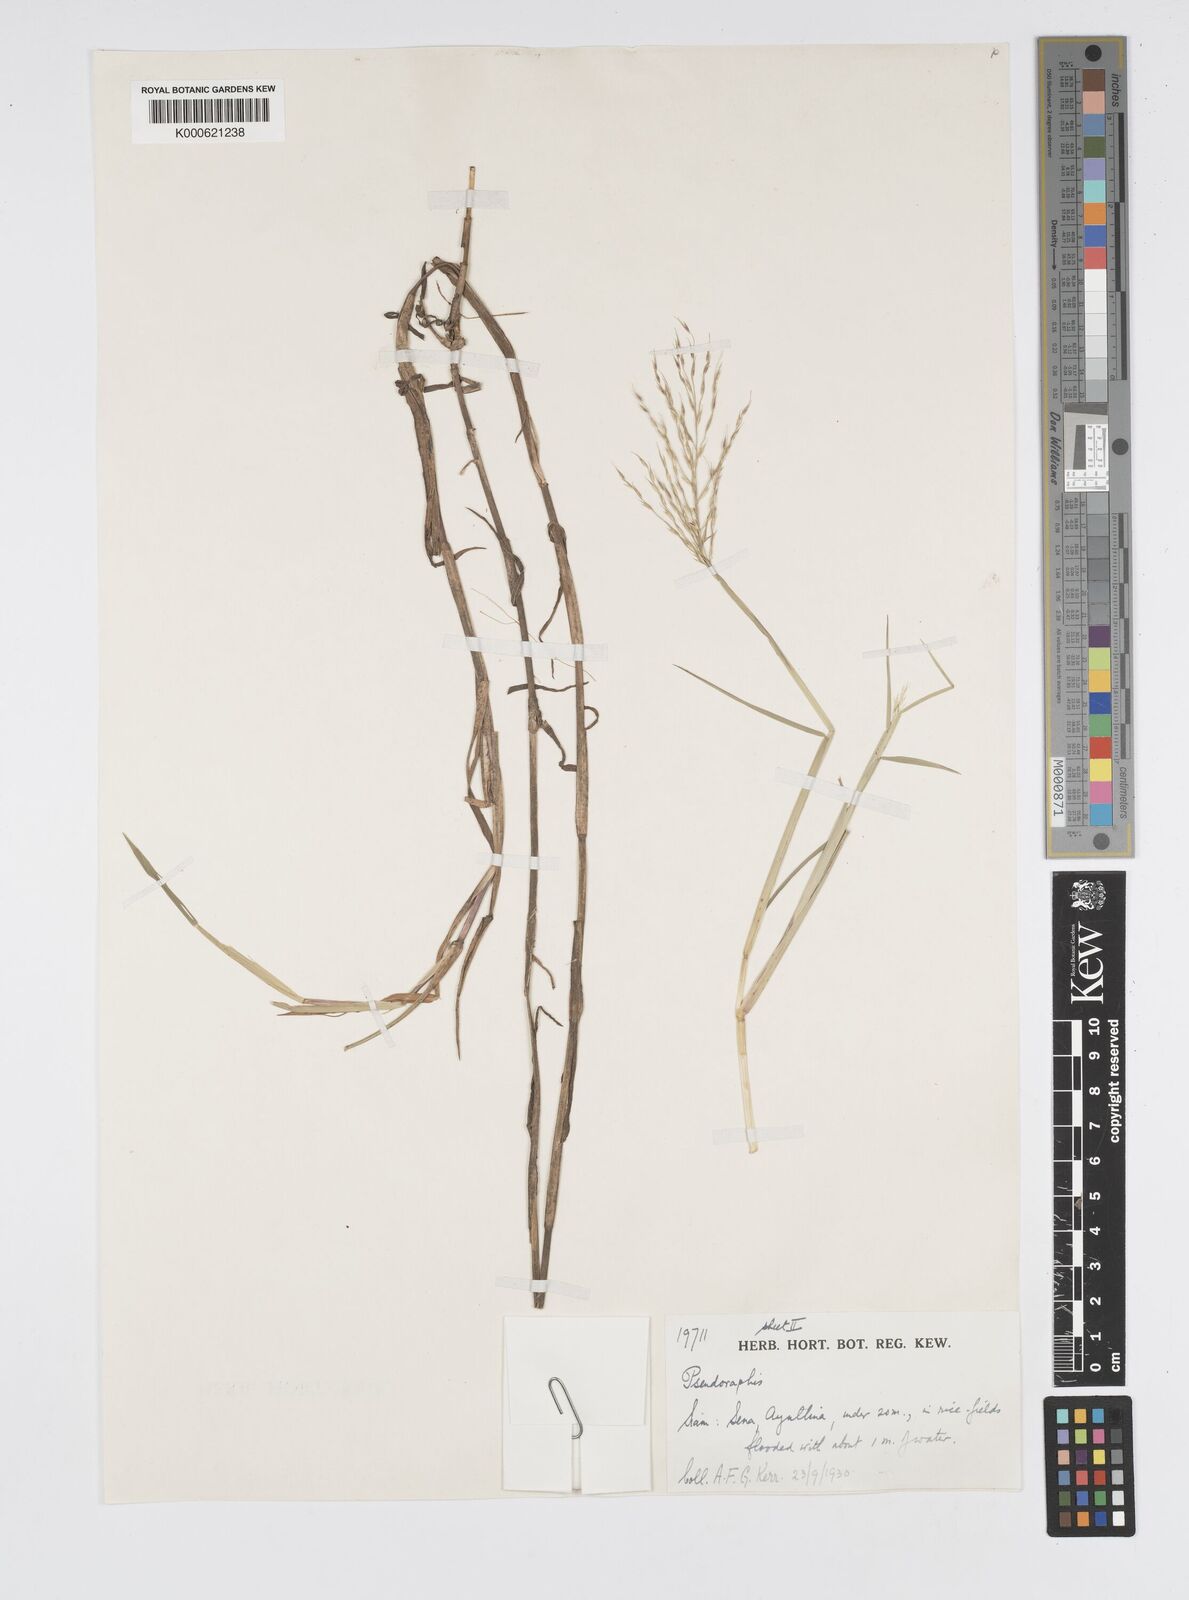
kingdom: Plantae
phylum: Tracheophyta
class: Liliopsida
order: Poales
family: Poaceae
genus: Pseudoraphis
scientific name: Pseudoraphis spinescens
